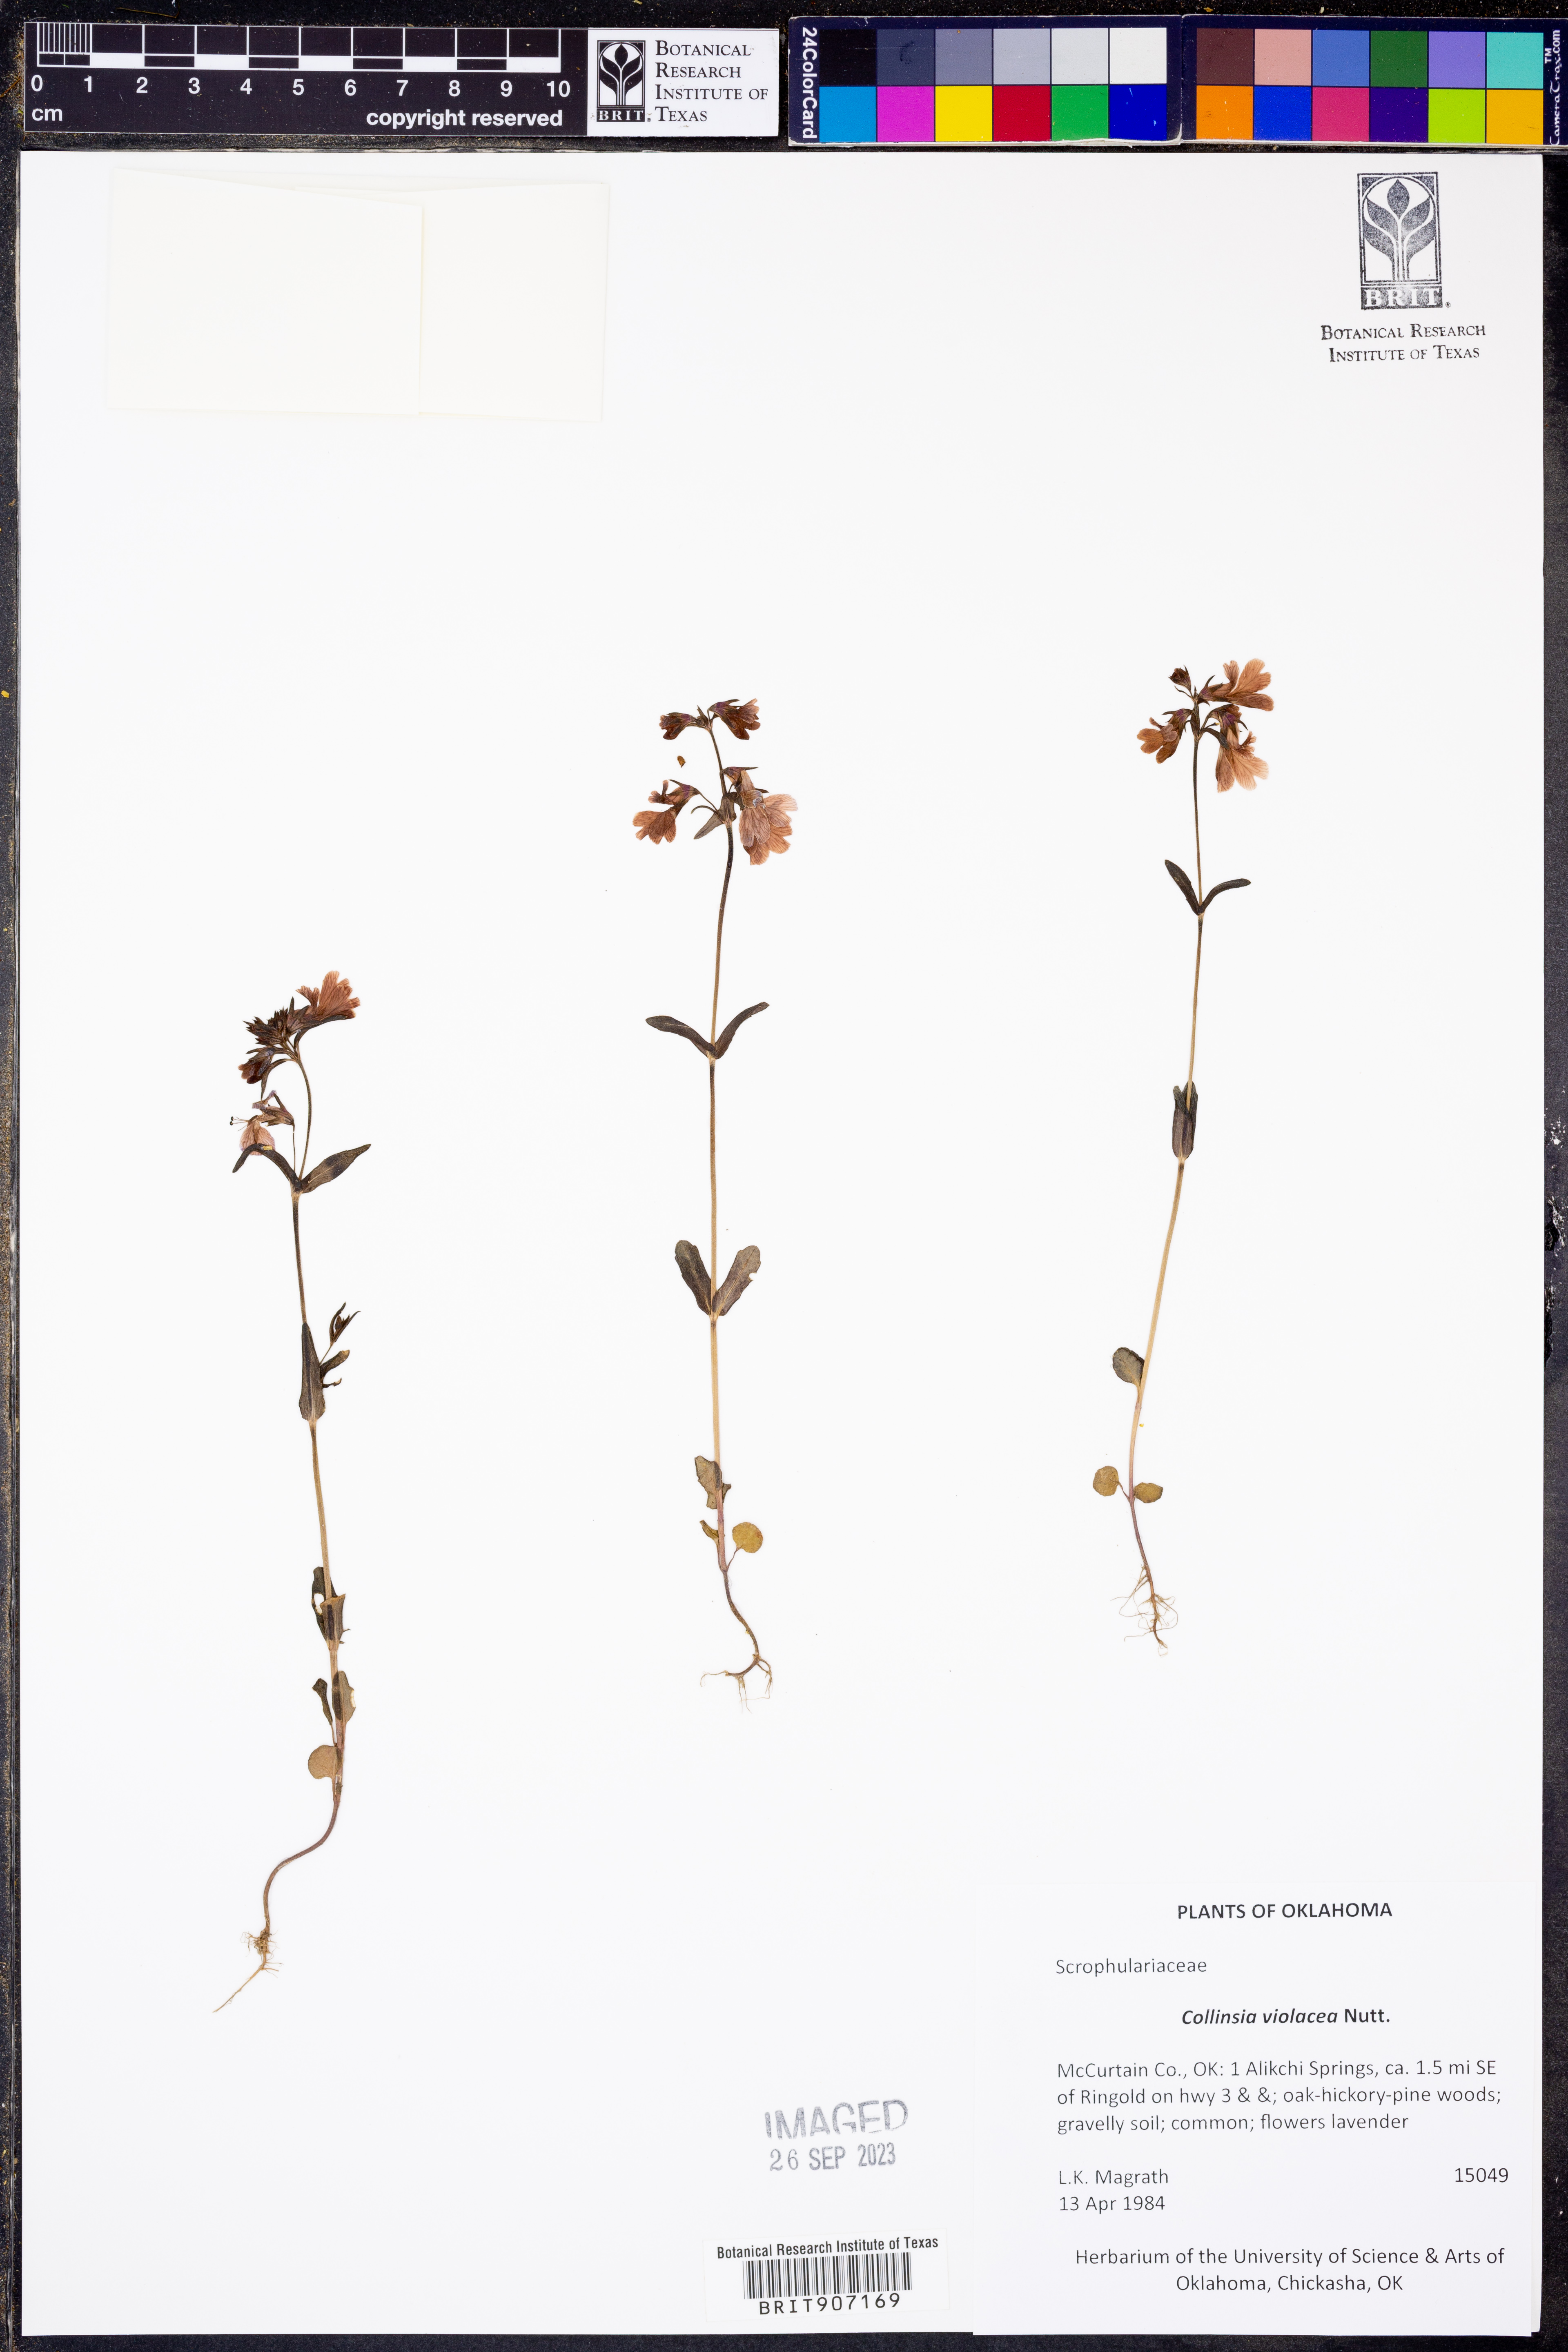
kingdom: Plantae
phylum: Tracheophyta
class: Magnoliopsida
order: Lamiales
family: Plantaginaceae
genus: Collinsia
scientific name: Collinsia violacea
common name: Violet collinsia
